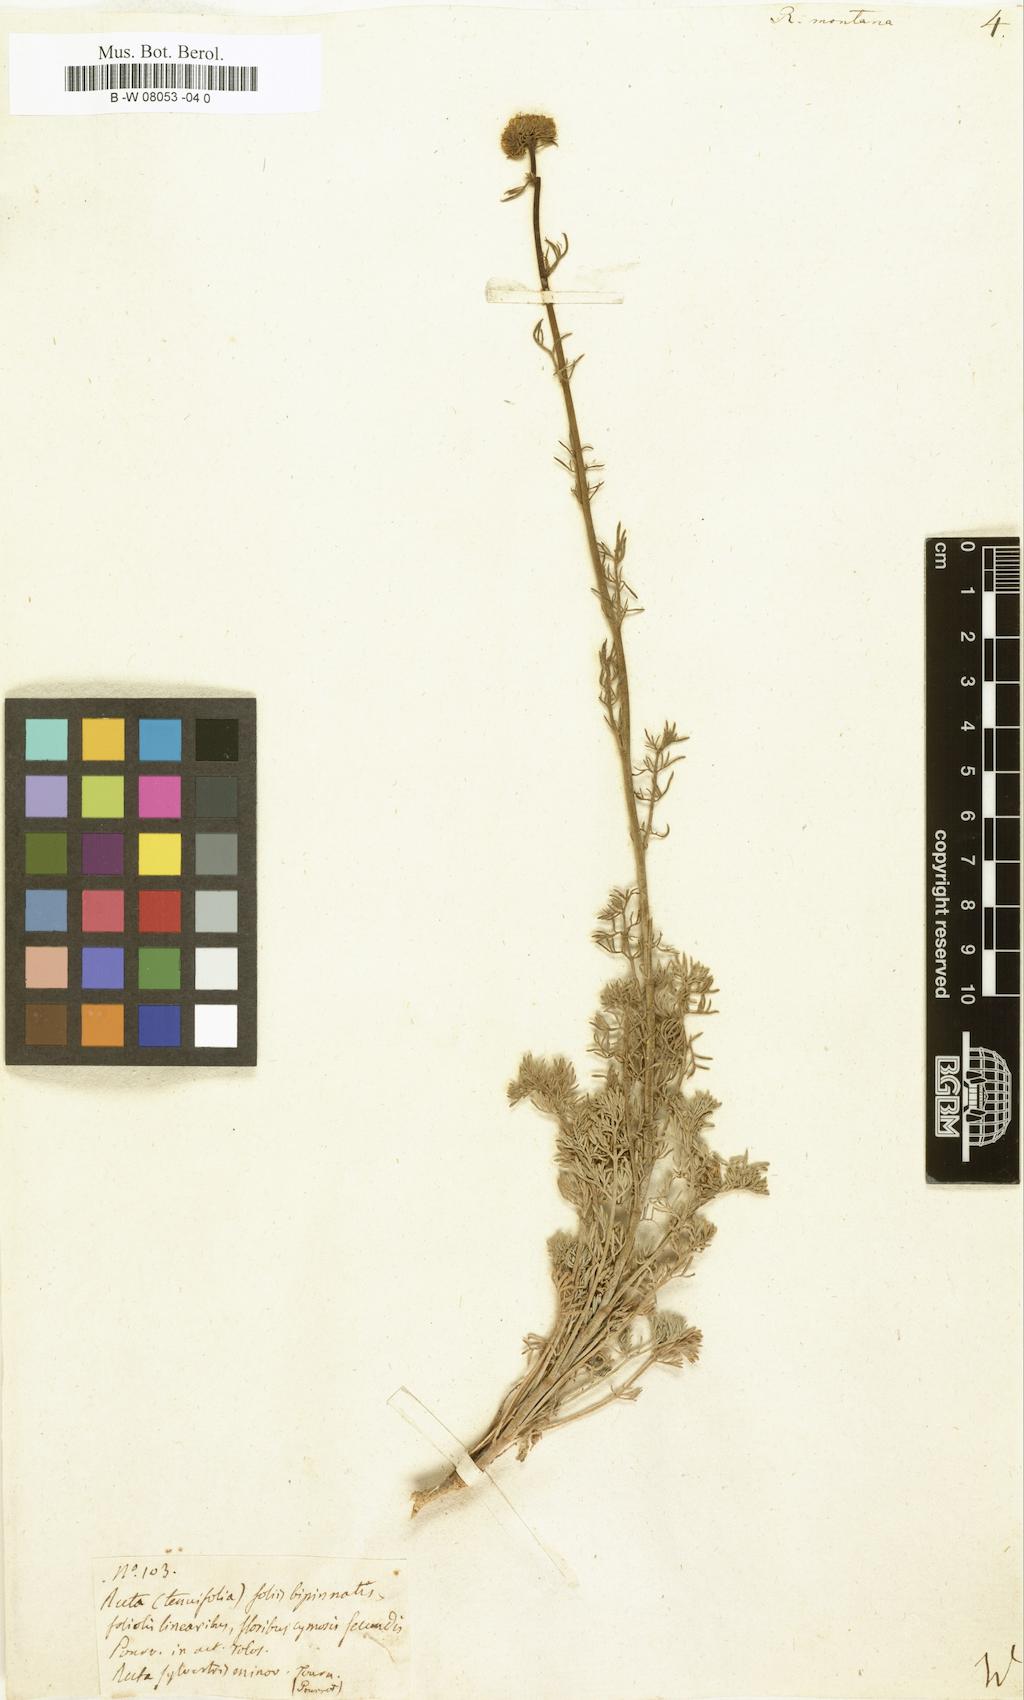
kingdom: Plantae
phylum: Tracheophyta
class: Magnoliopsida
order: Sapindales
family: Rutaceae
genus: Ruta
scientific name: Ruta montana
